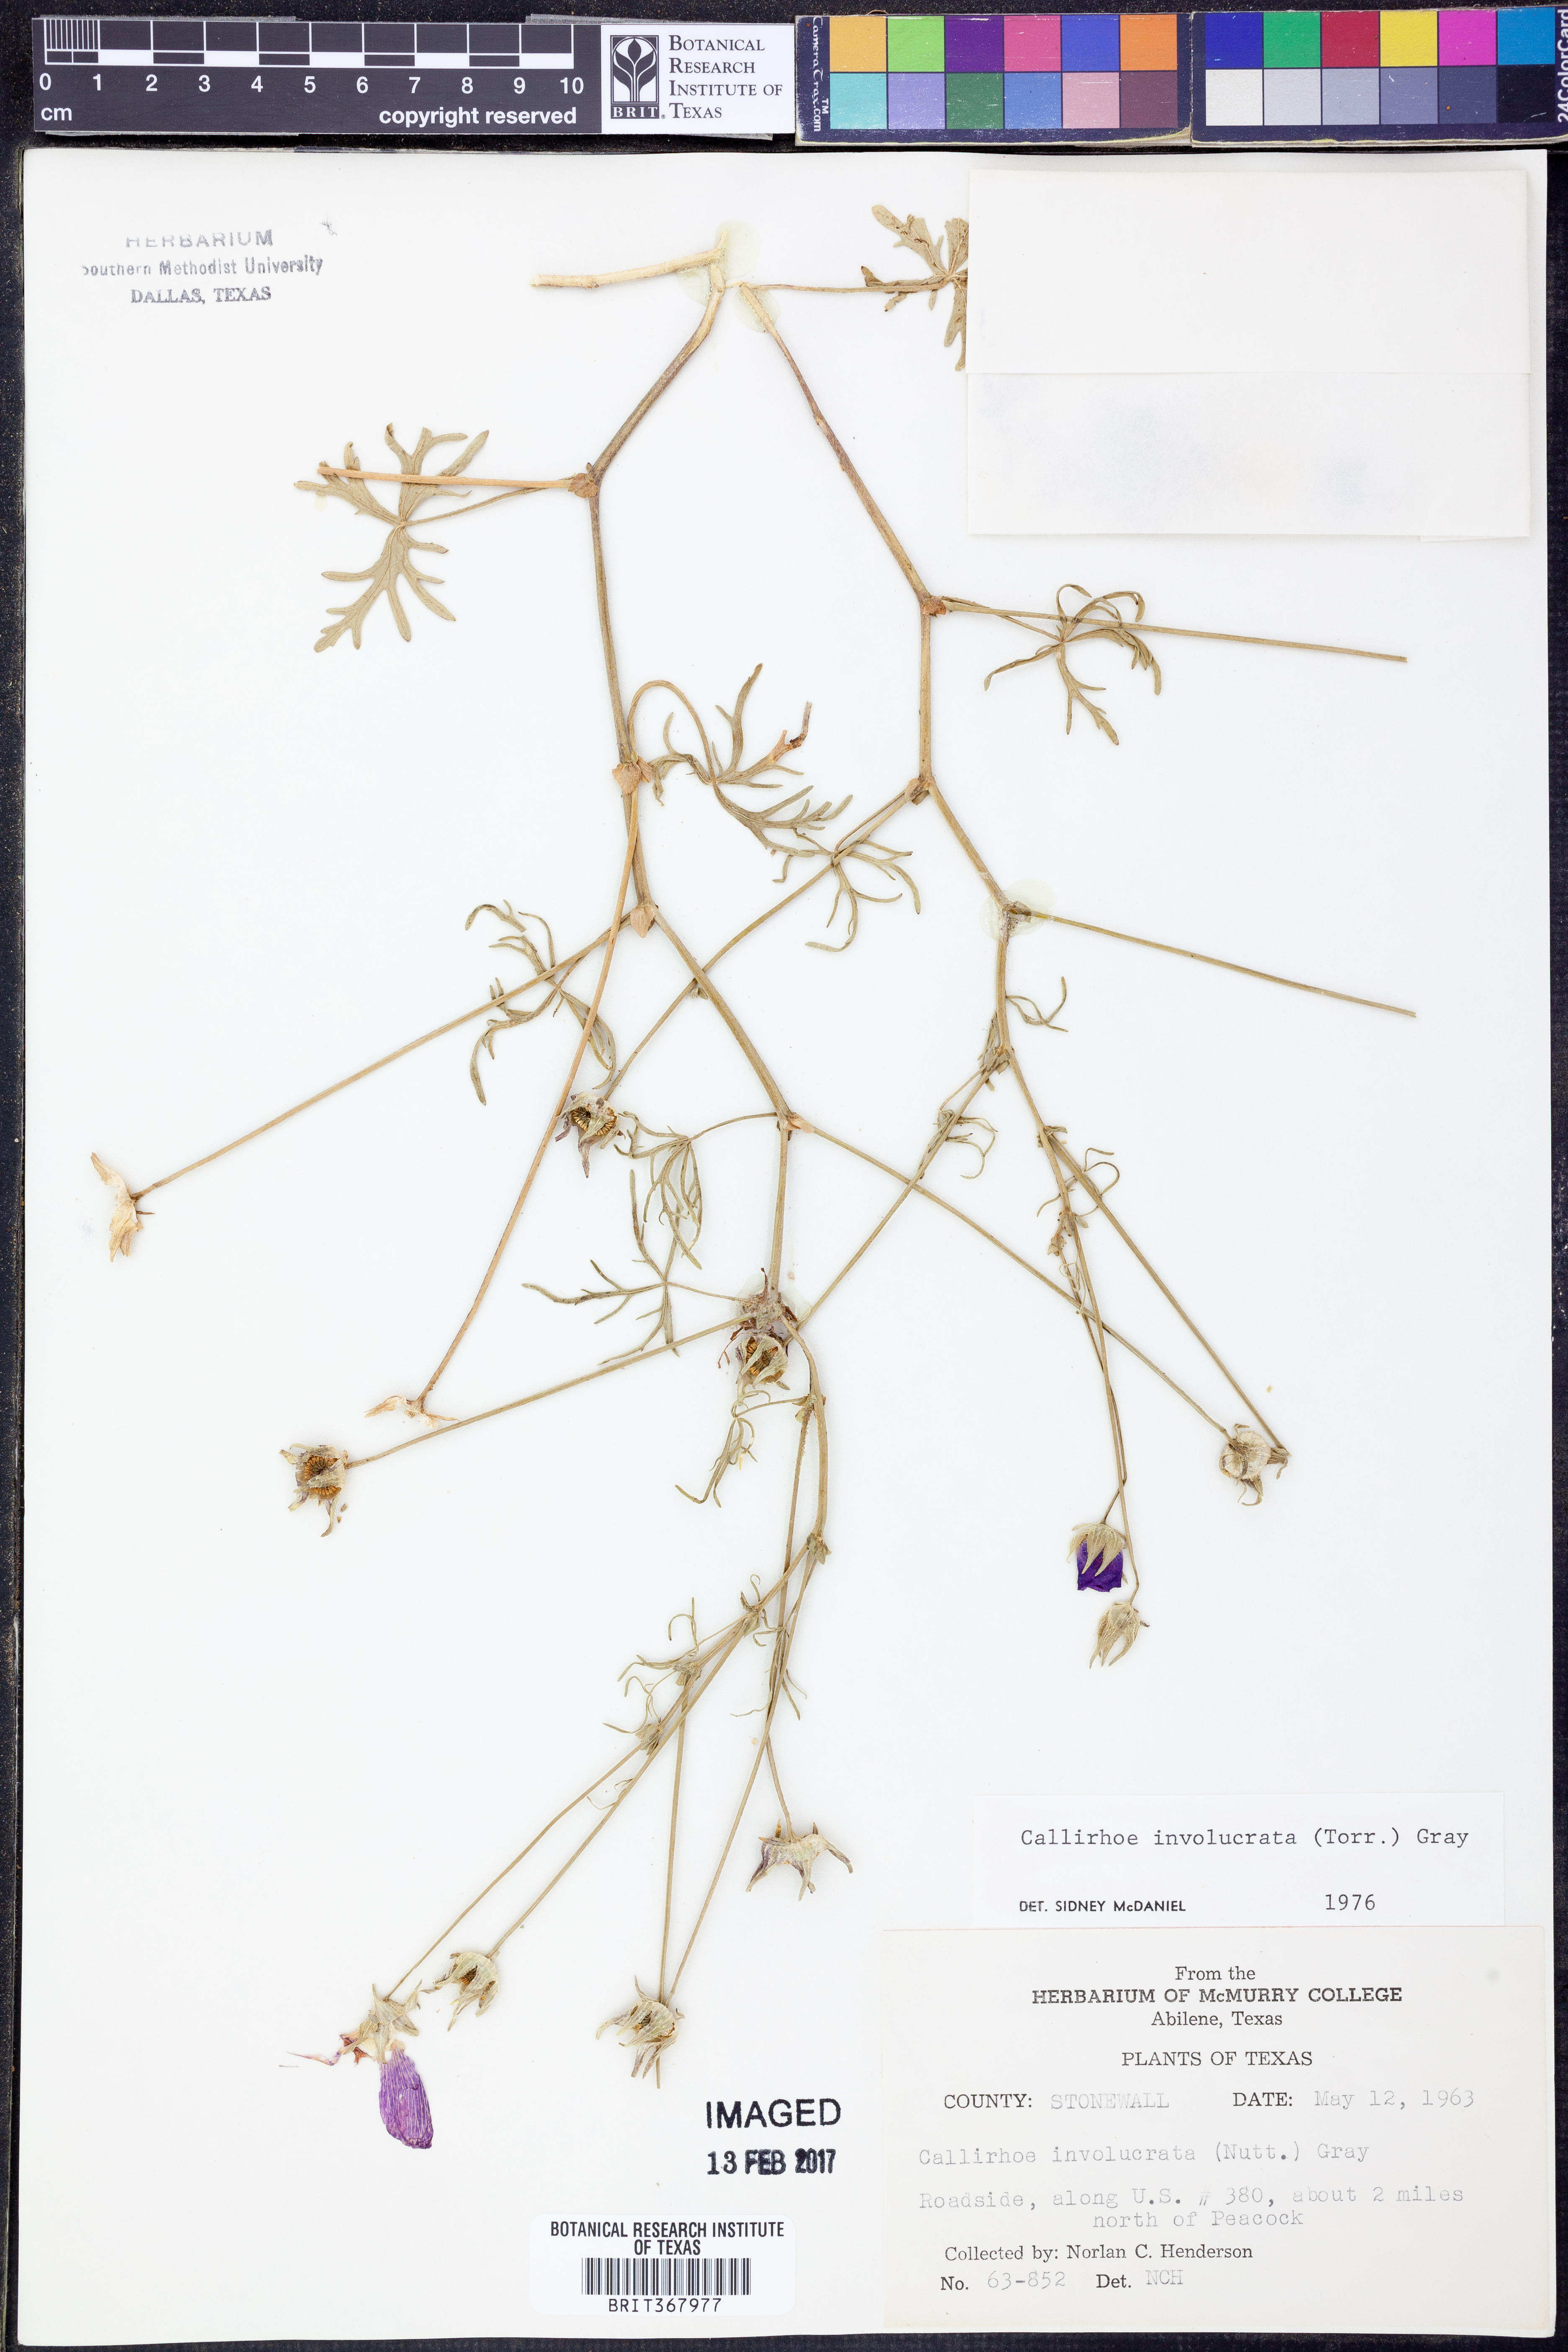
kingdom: Plantae
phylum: Tracheophyta
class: Magnoliopsida
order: Malvales
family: Malvaceae
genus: Callirhoe
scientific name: Callirhoe involucrata
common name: Purple poppy-mallow
